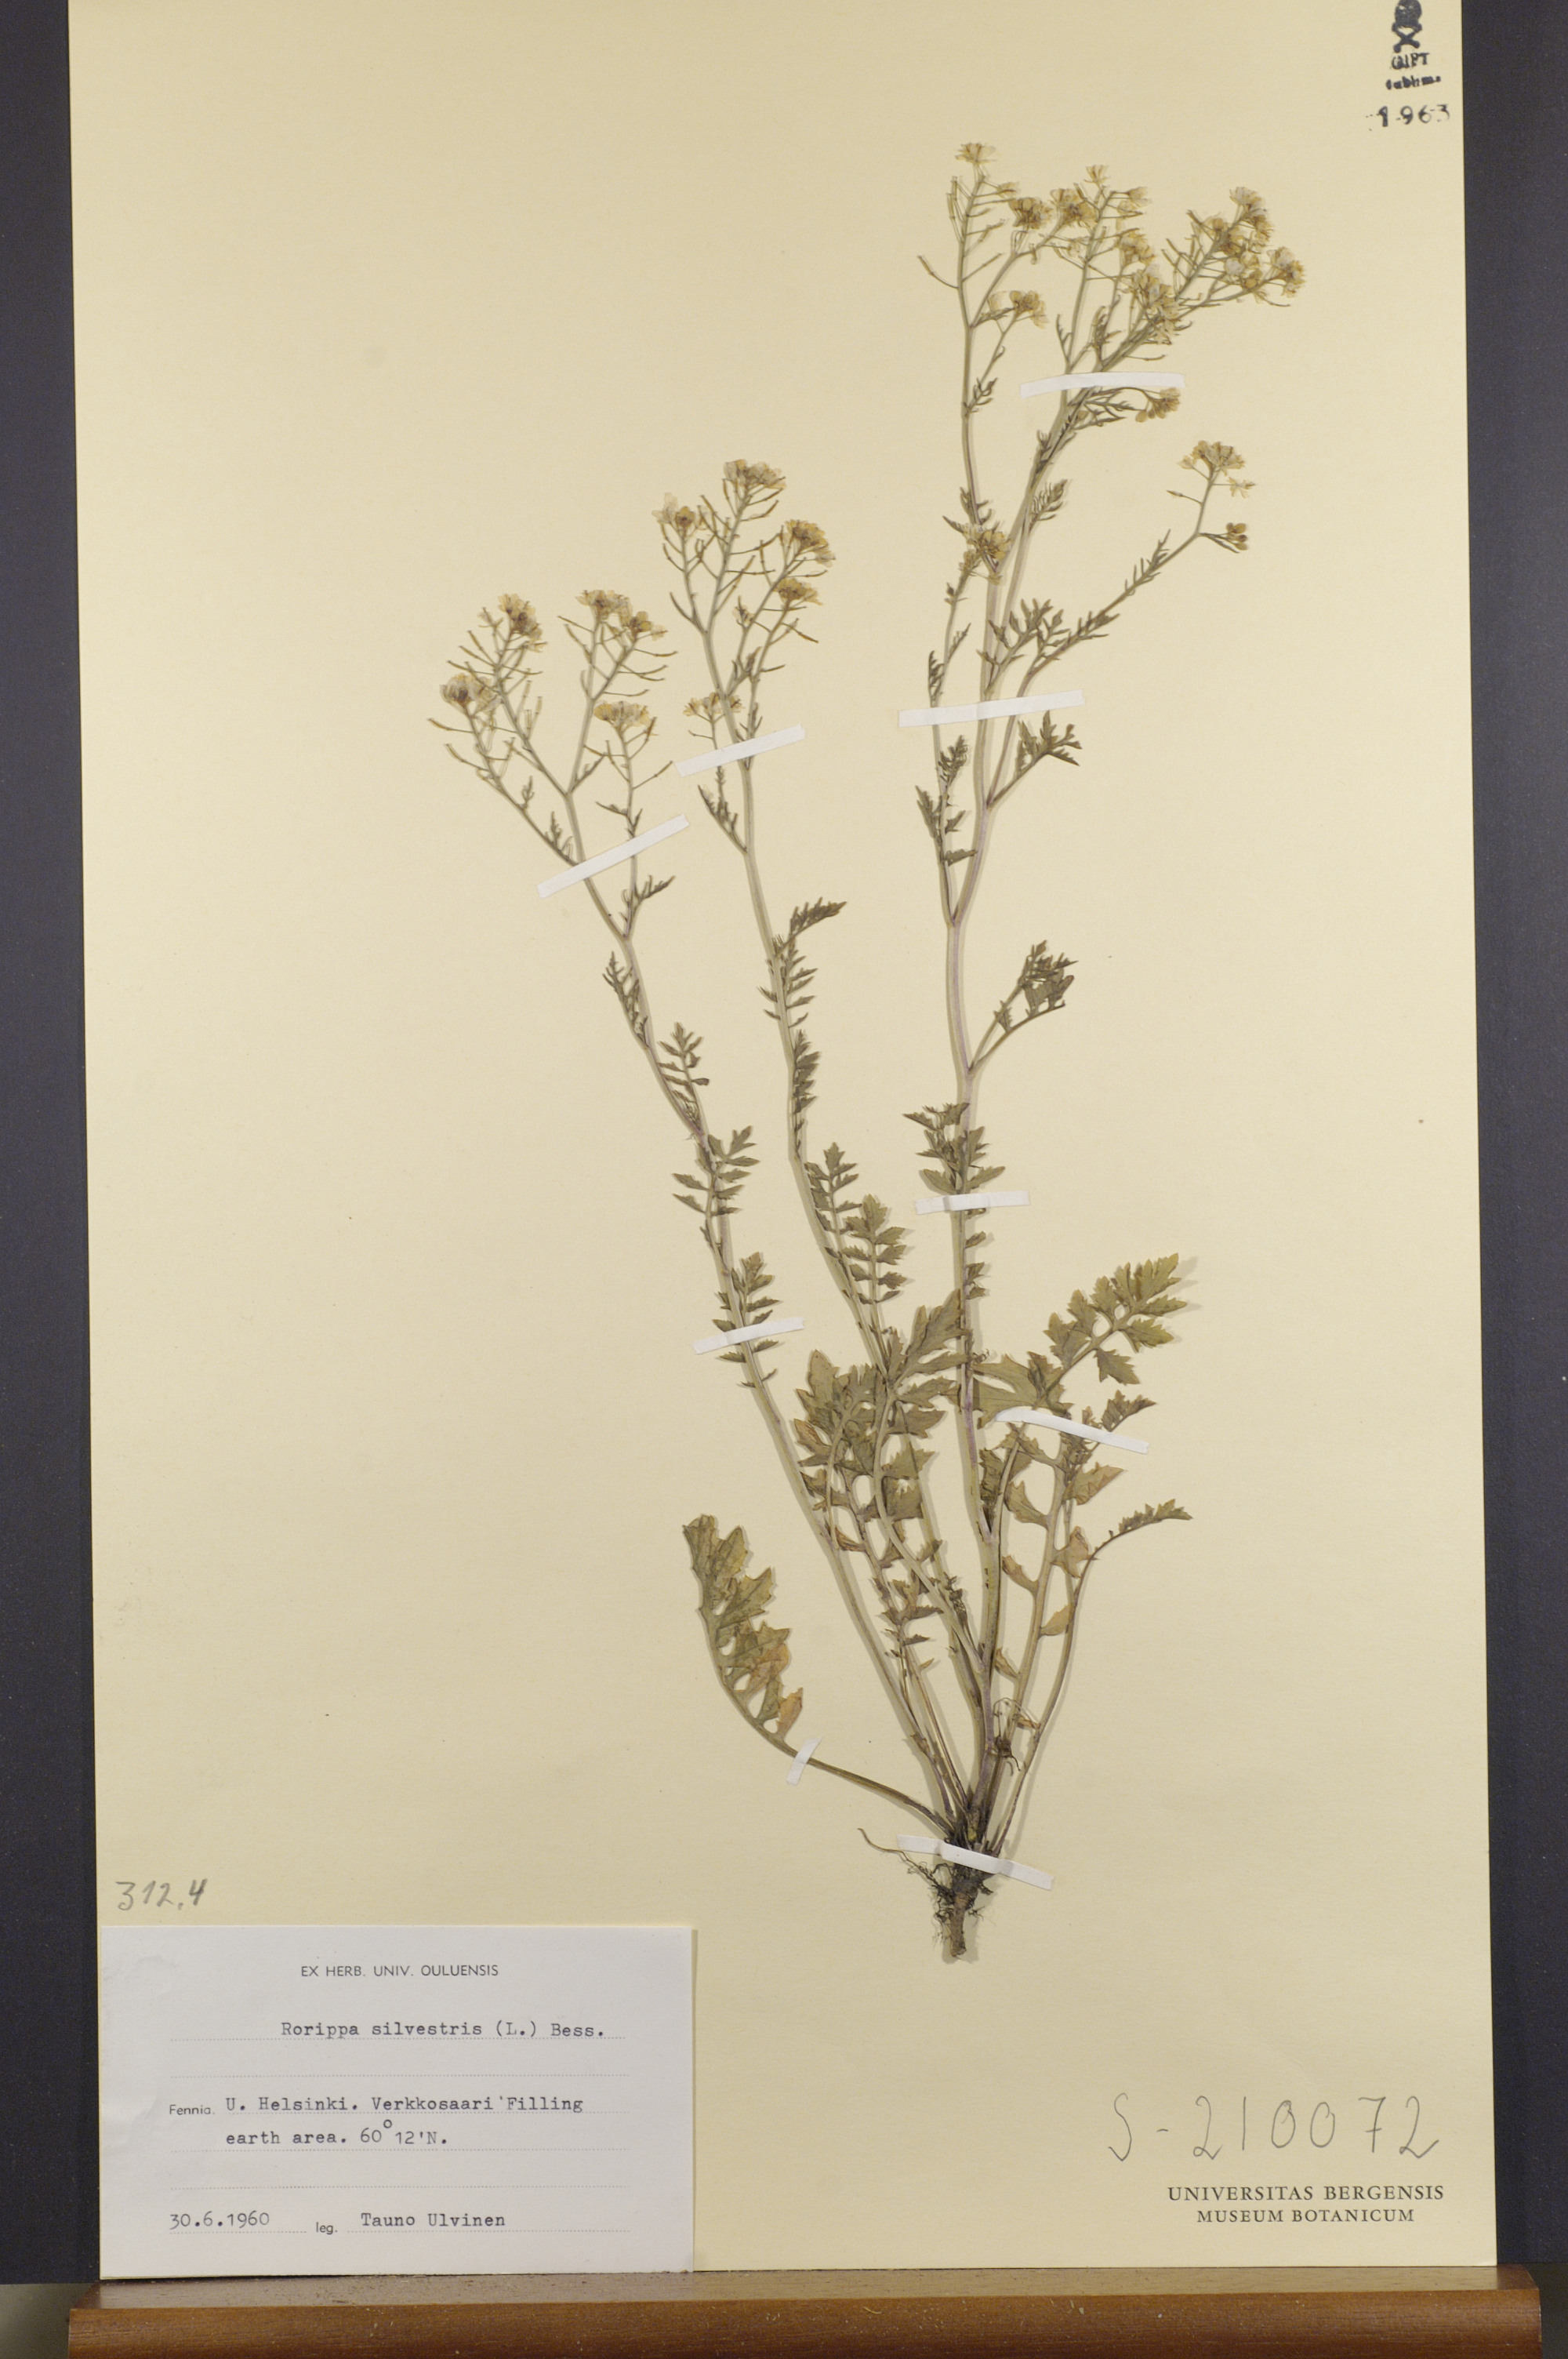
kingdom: Plantae
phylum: Tracheophyta
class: Magnoliopsida
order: Brassicales
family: Brassicaceae
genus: Rorippa
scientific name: Rorippa sylvestris
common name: Creeping yellowcress
